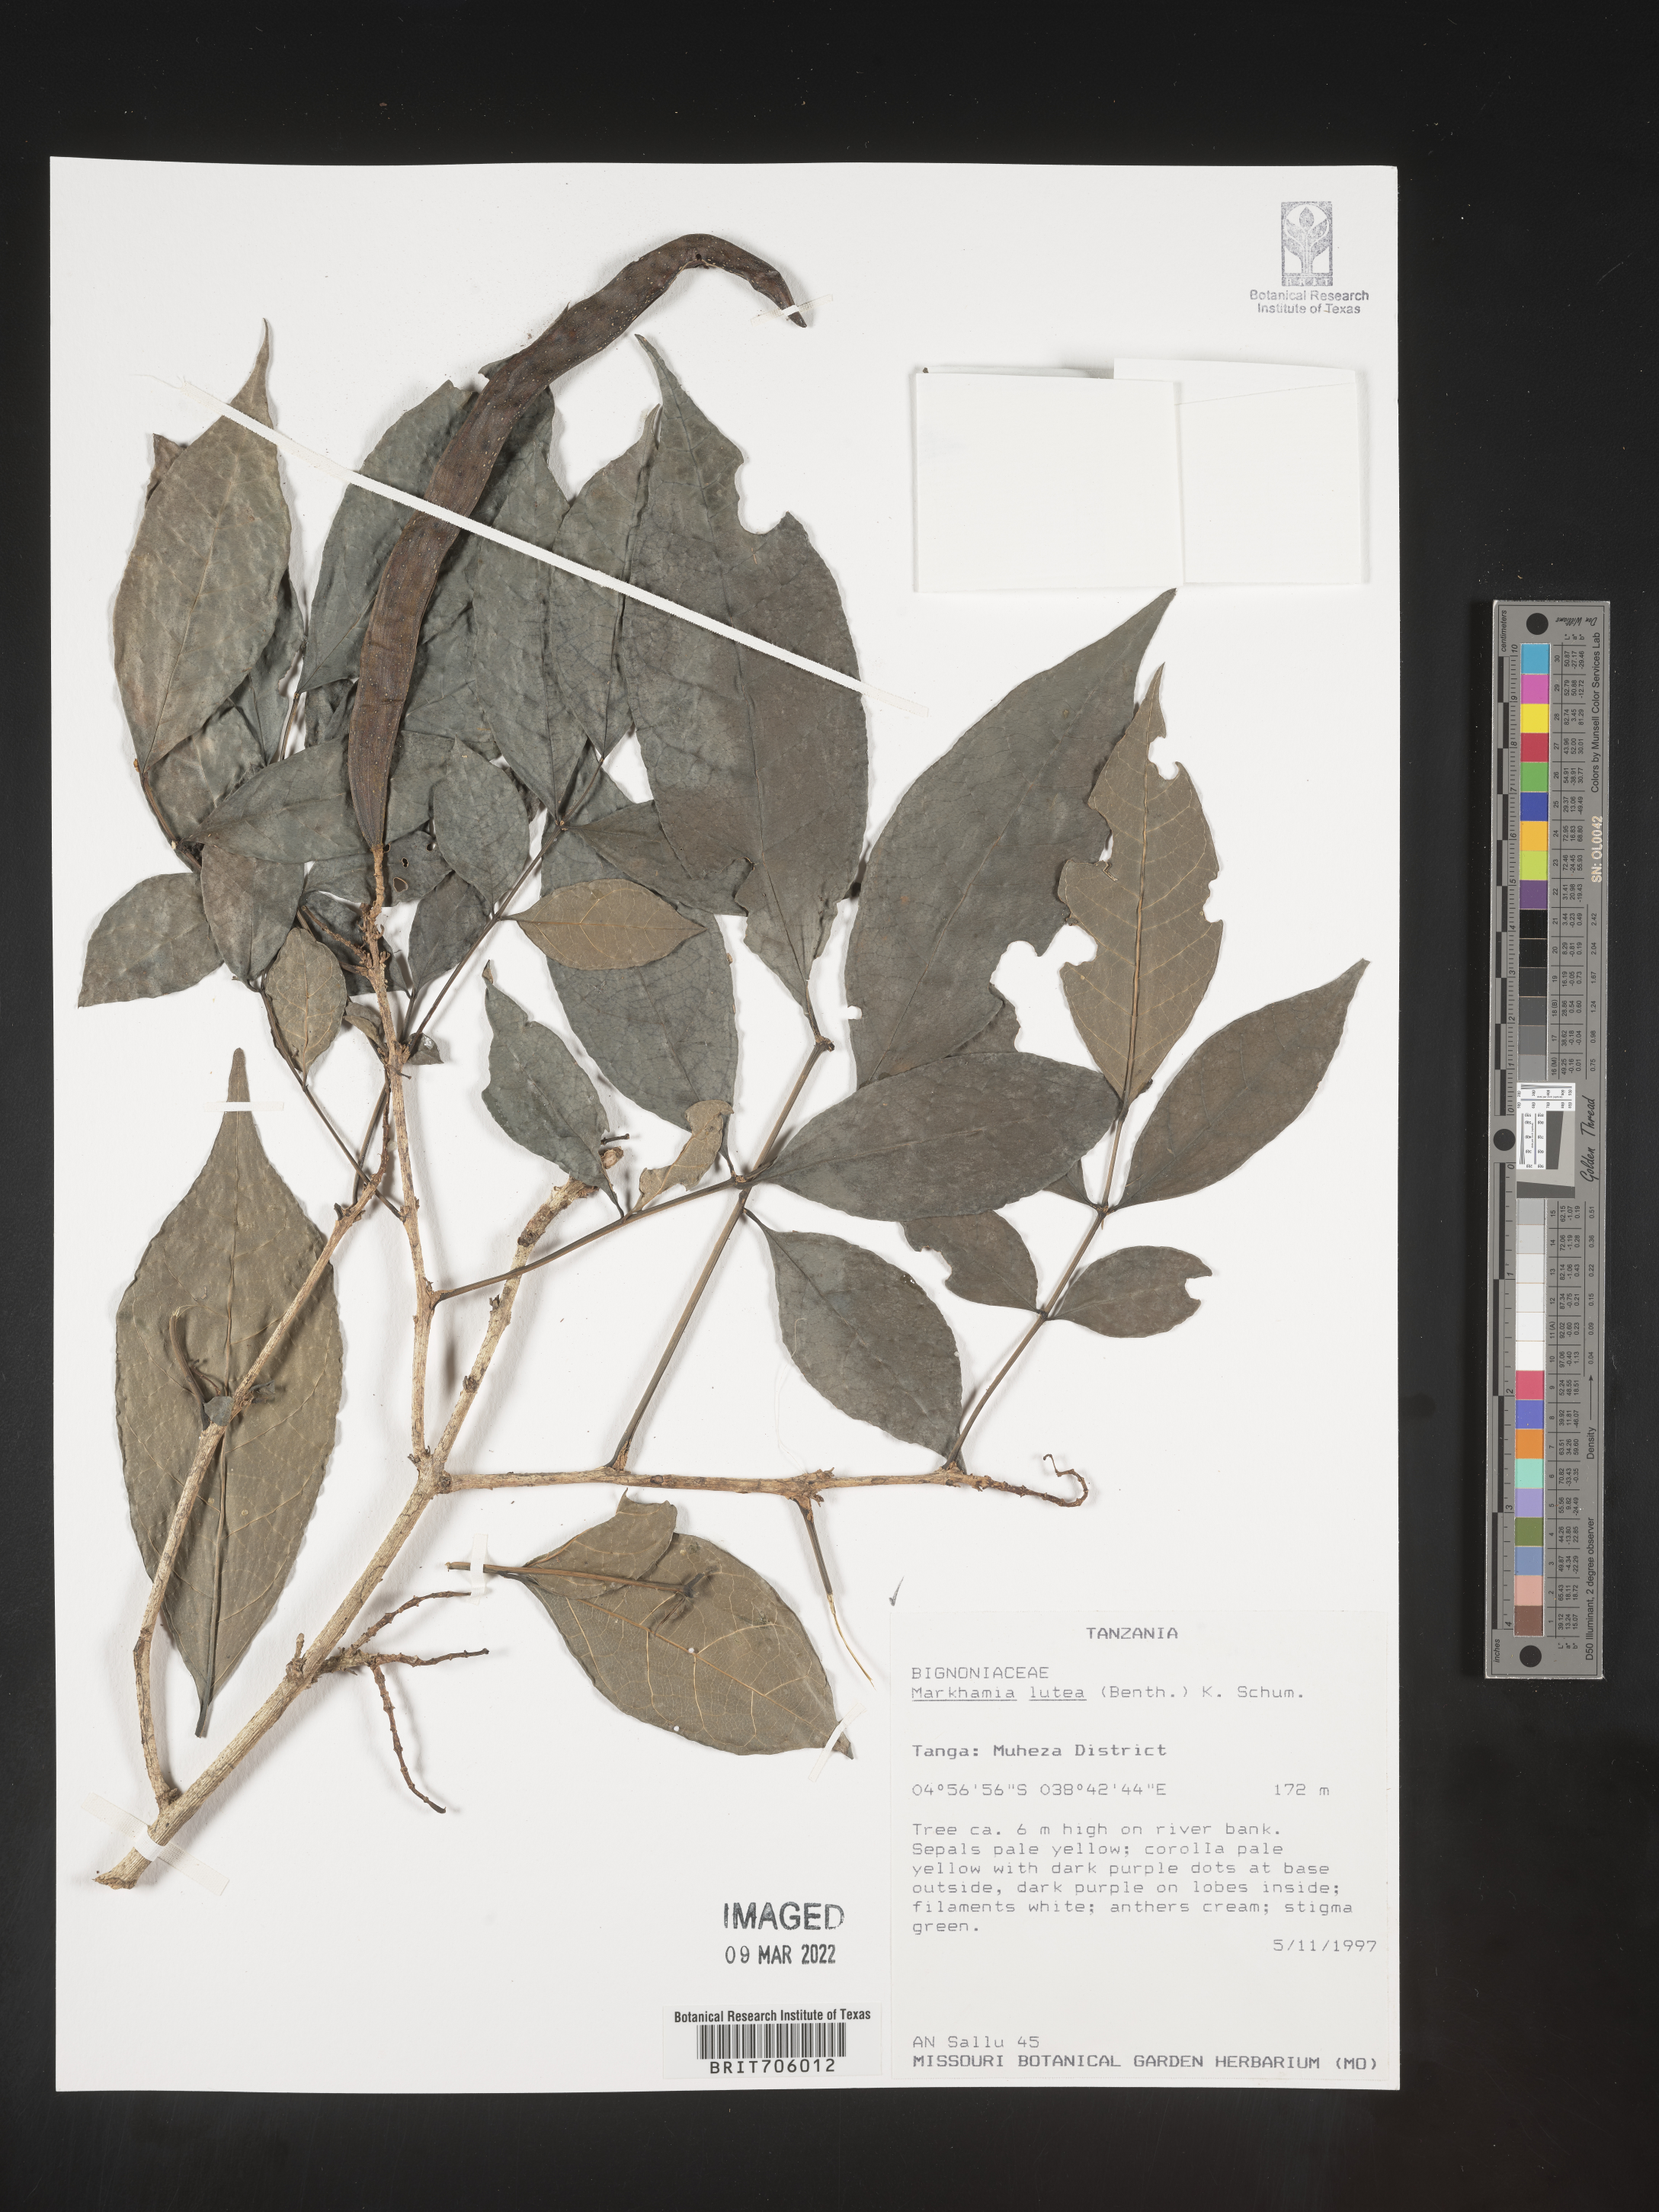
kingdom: Plantae
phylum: Tracheophyta
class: Magnoliopsida
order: Lamiales
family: Bignoniaceae
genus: Markhamia
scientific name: Markhamia
